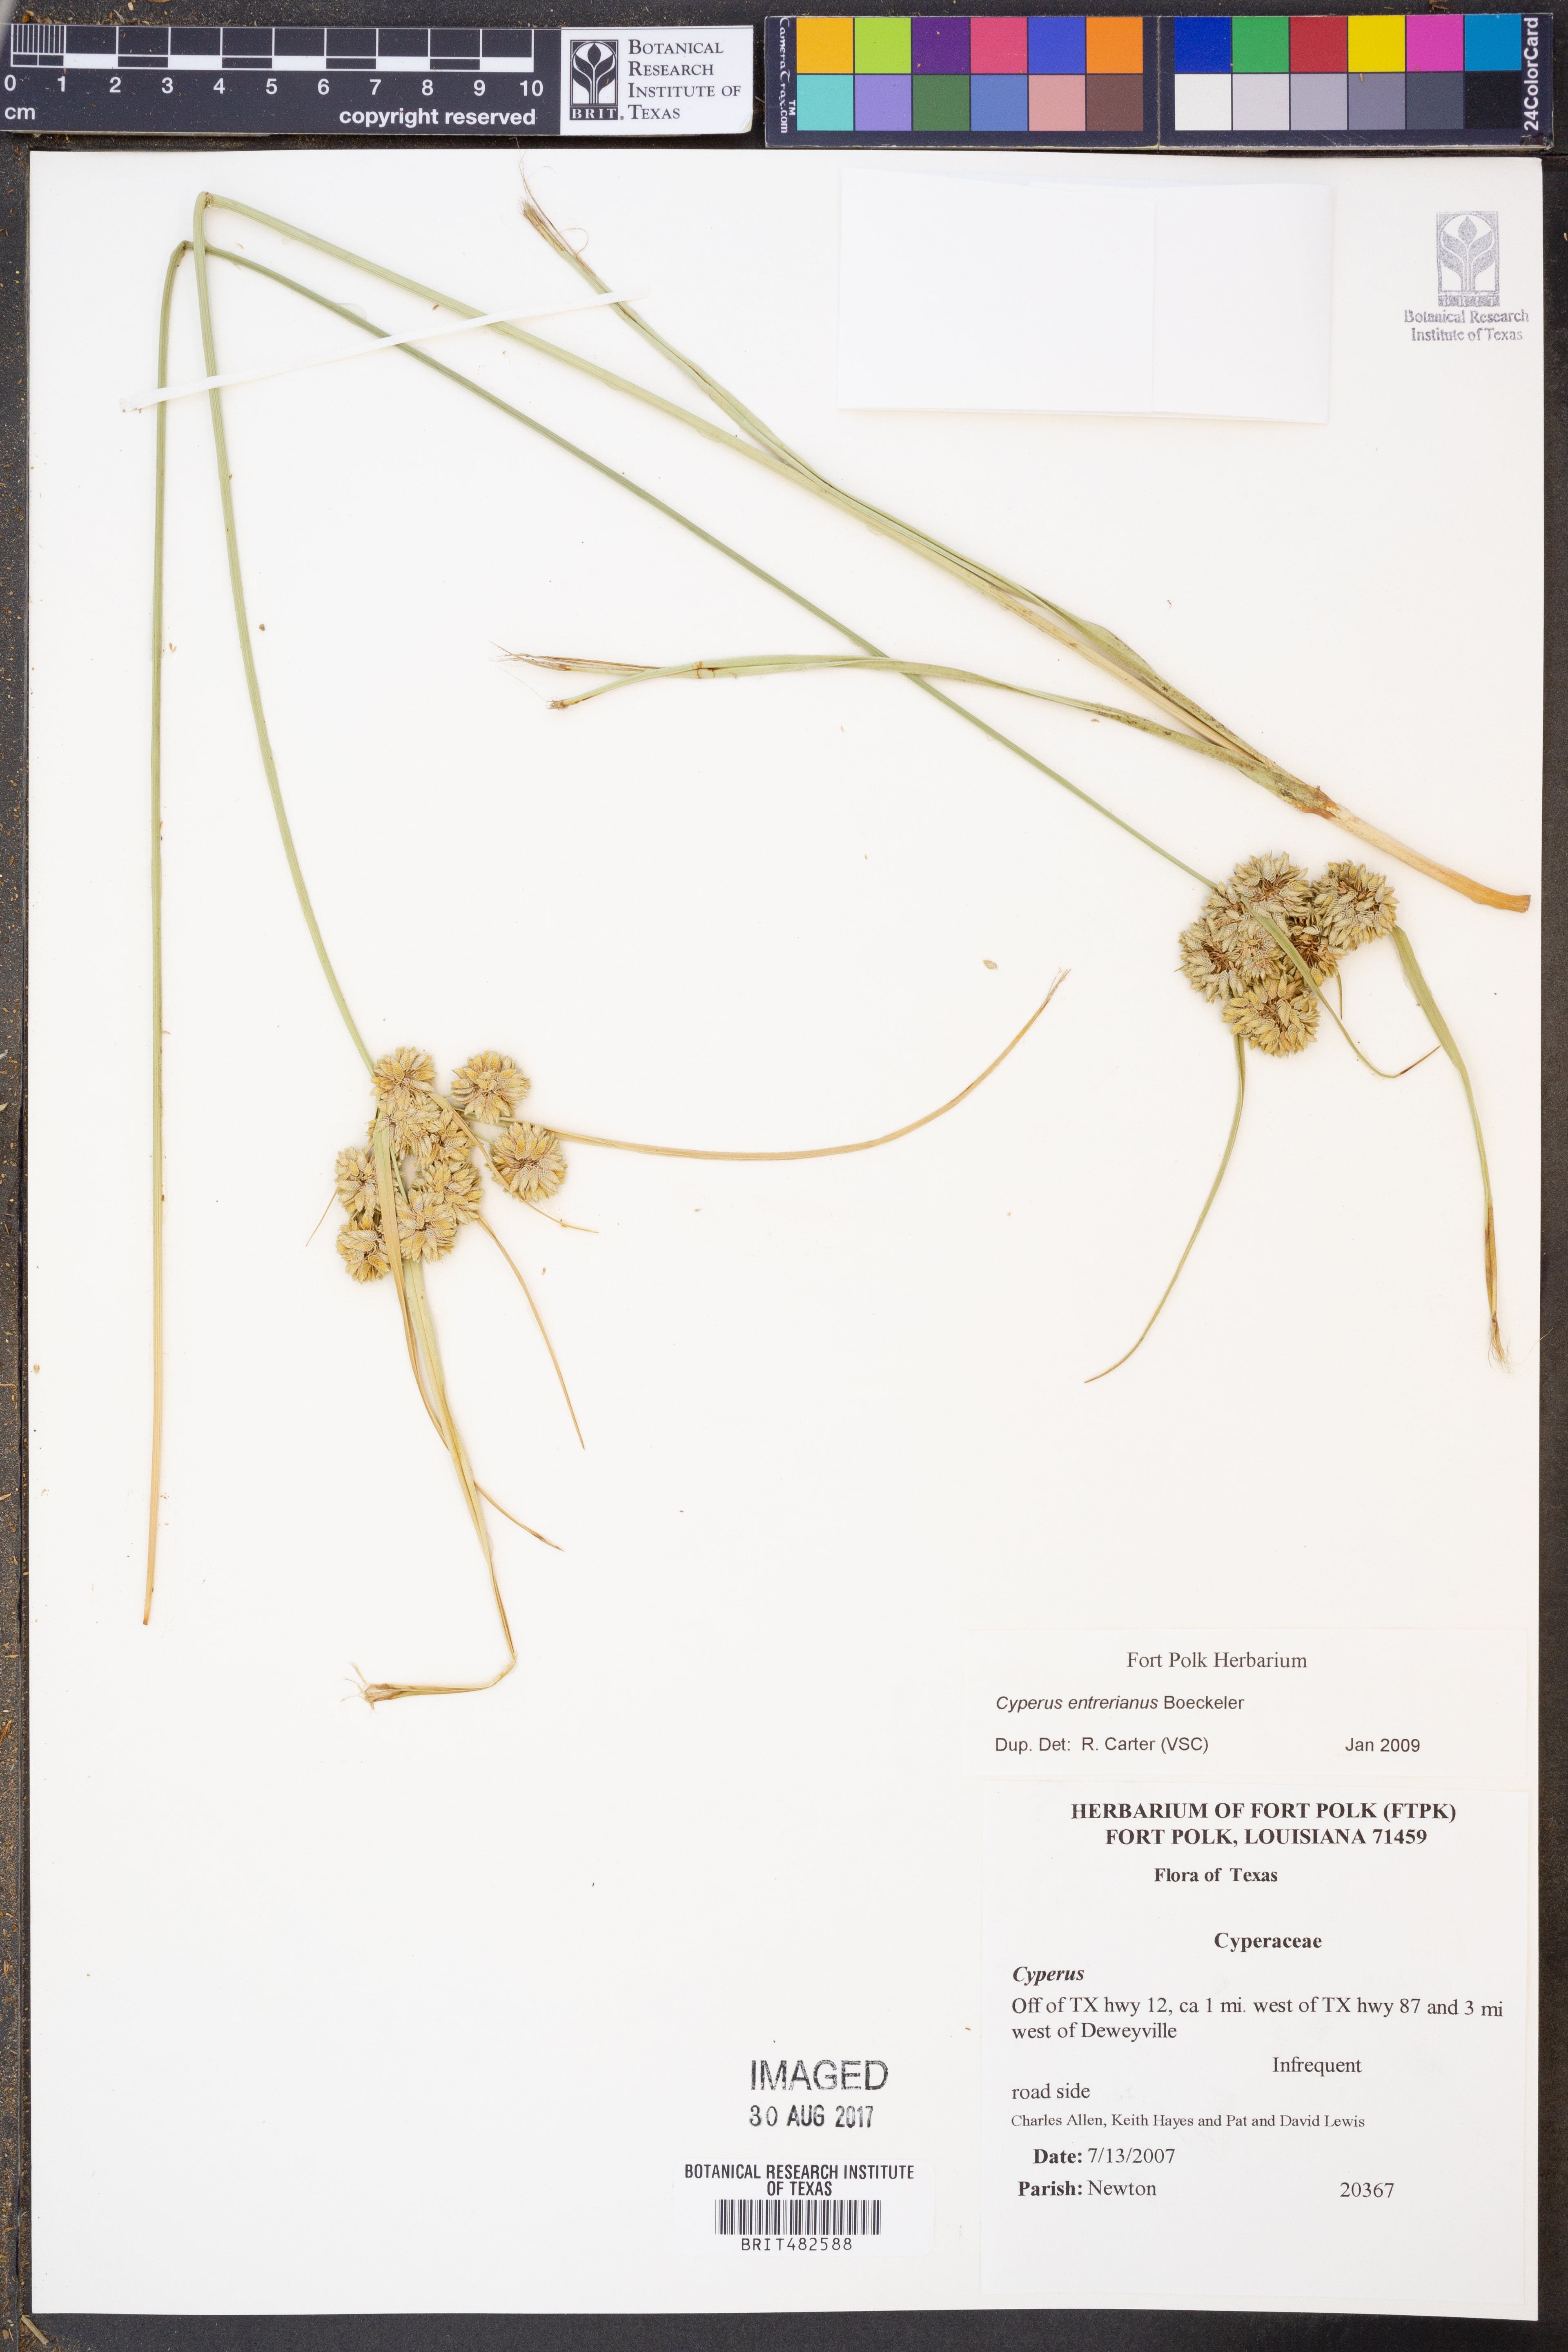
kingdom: Plantae
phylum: Tracheophyta
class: Liliopsida
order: Poales
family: Cyperaceae
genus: Cyperus
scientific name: Cyperus entrerianus
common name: Woodrush flatsedge
